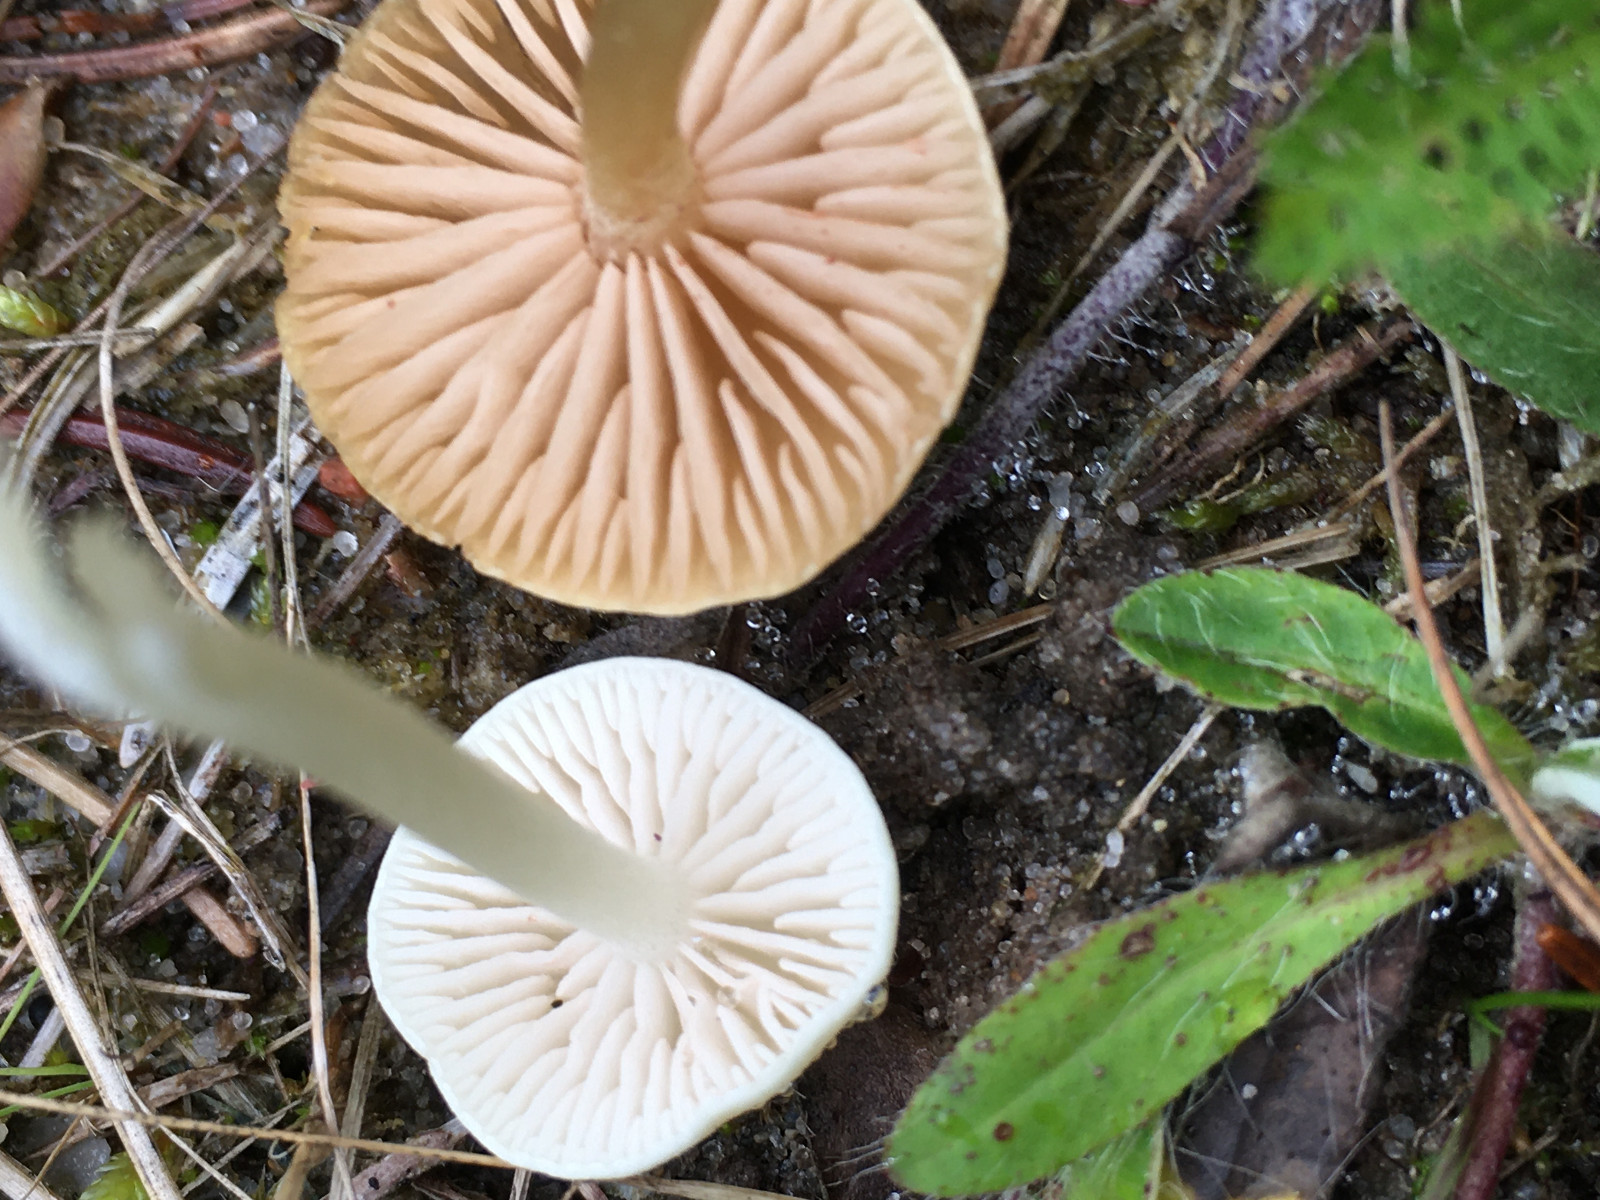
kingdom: Fungi
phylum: Basidiomycota
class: Agaricomycetes
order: Agaricales
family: Entolomataceae
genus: Entoloma
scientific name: Entoloma sericellum
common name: silkehvid rødblad
